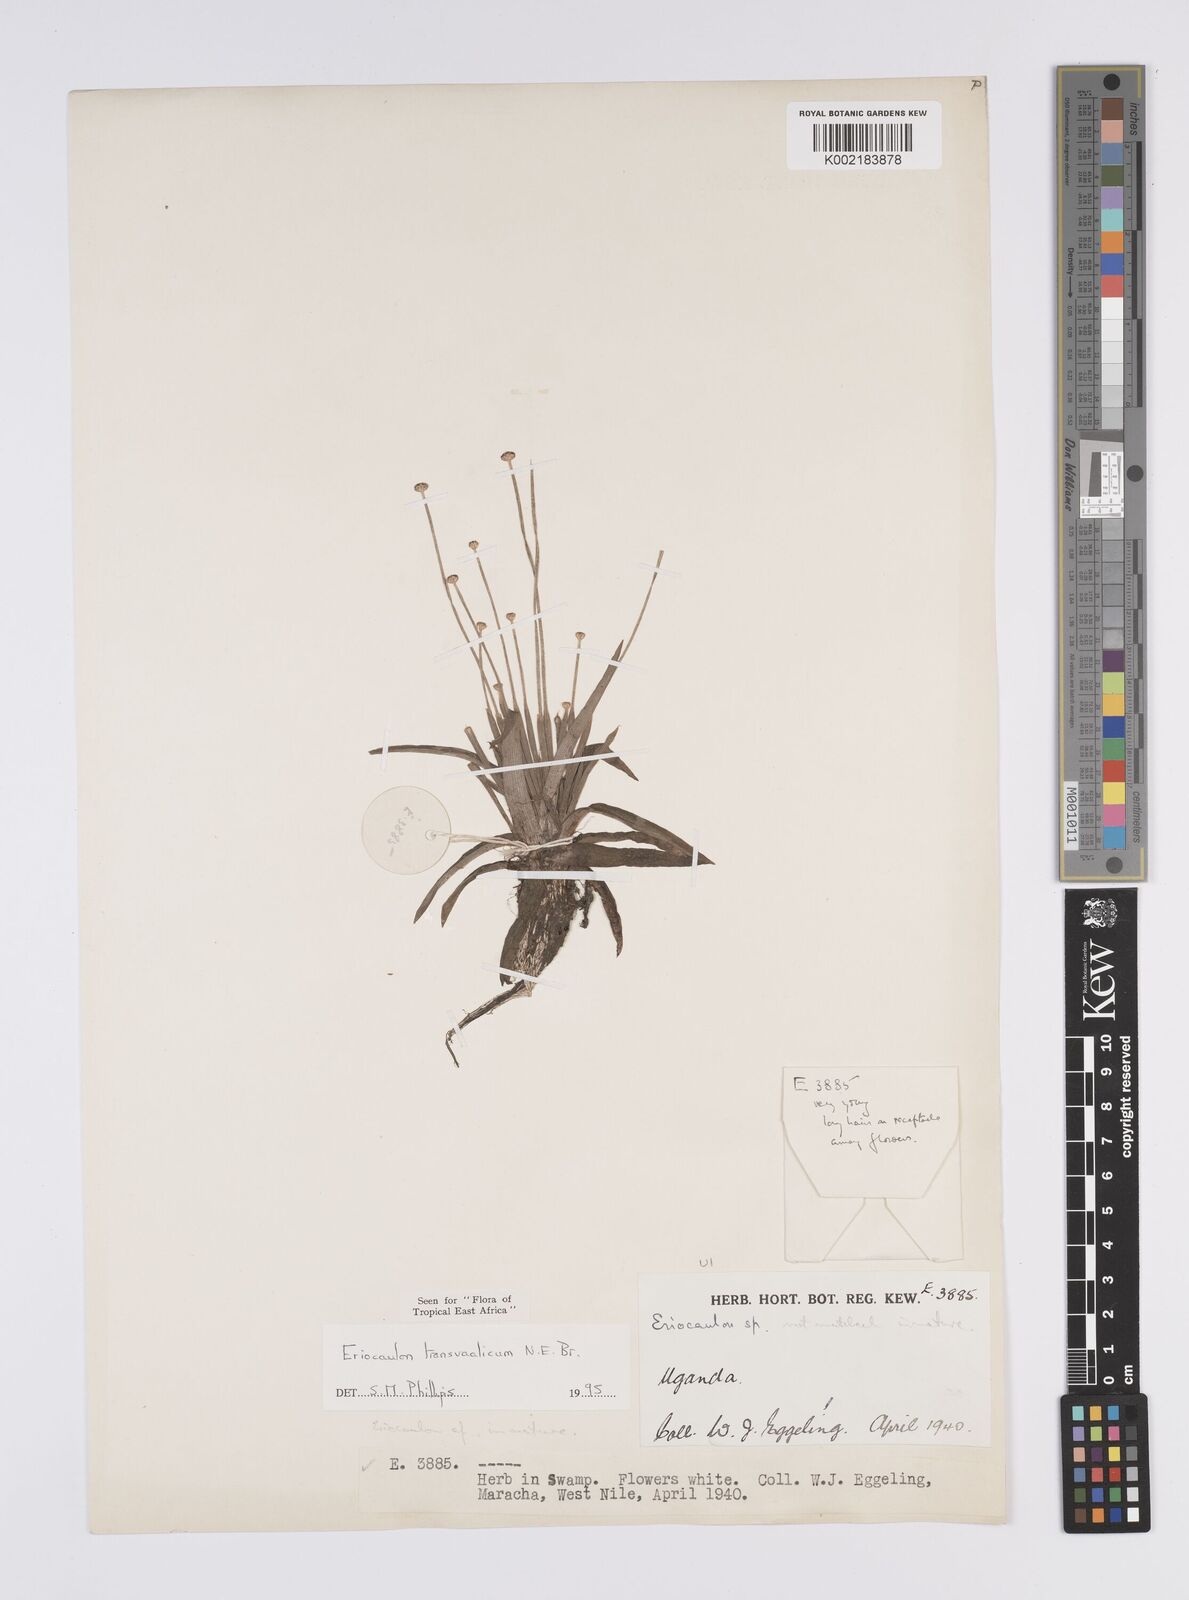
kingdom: Plantae
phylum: Tracheophyta
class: Liliopsida
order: Poales
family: Eriocaulaceae
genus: Eriocaulon
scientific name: Eriocaulon transvaalicum
